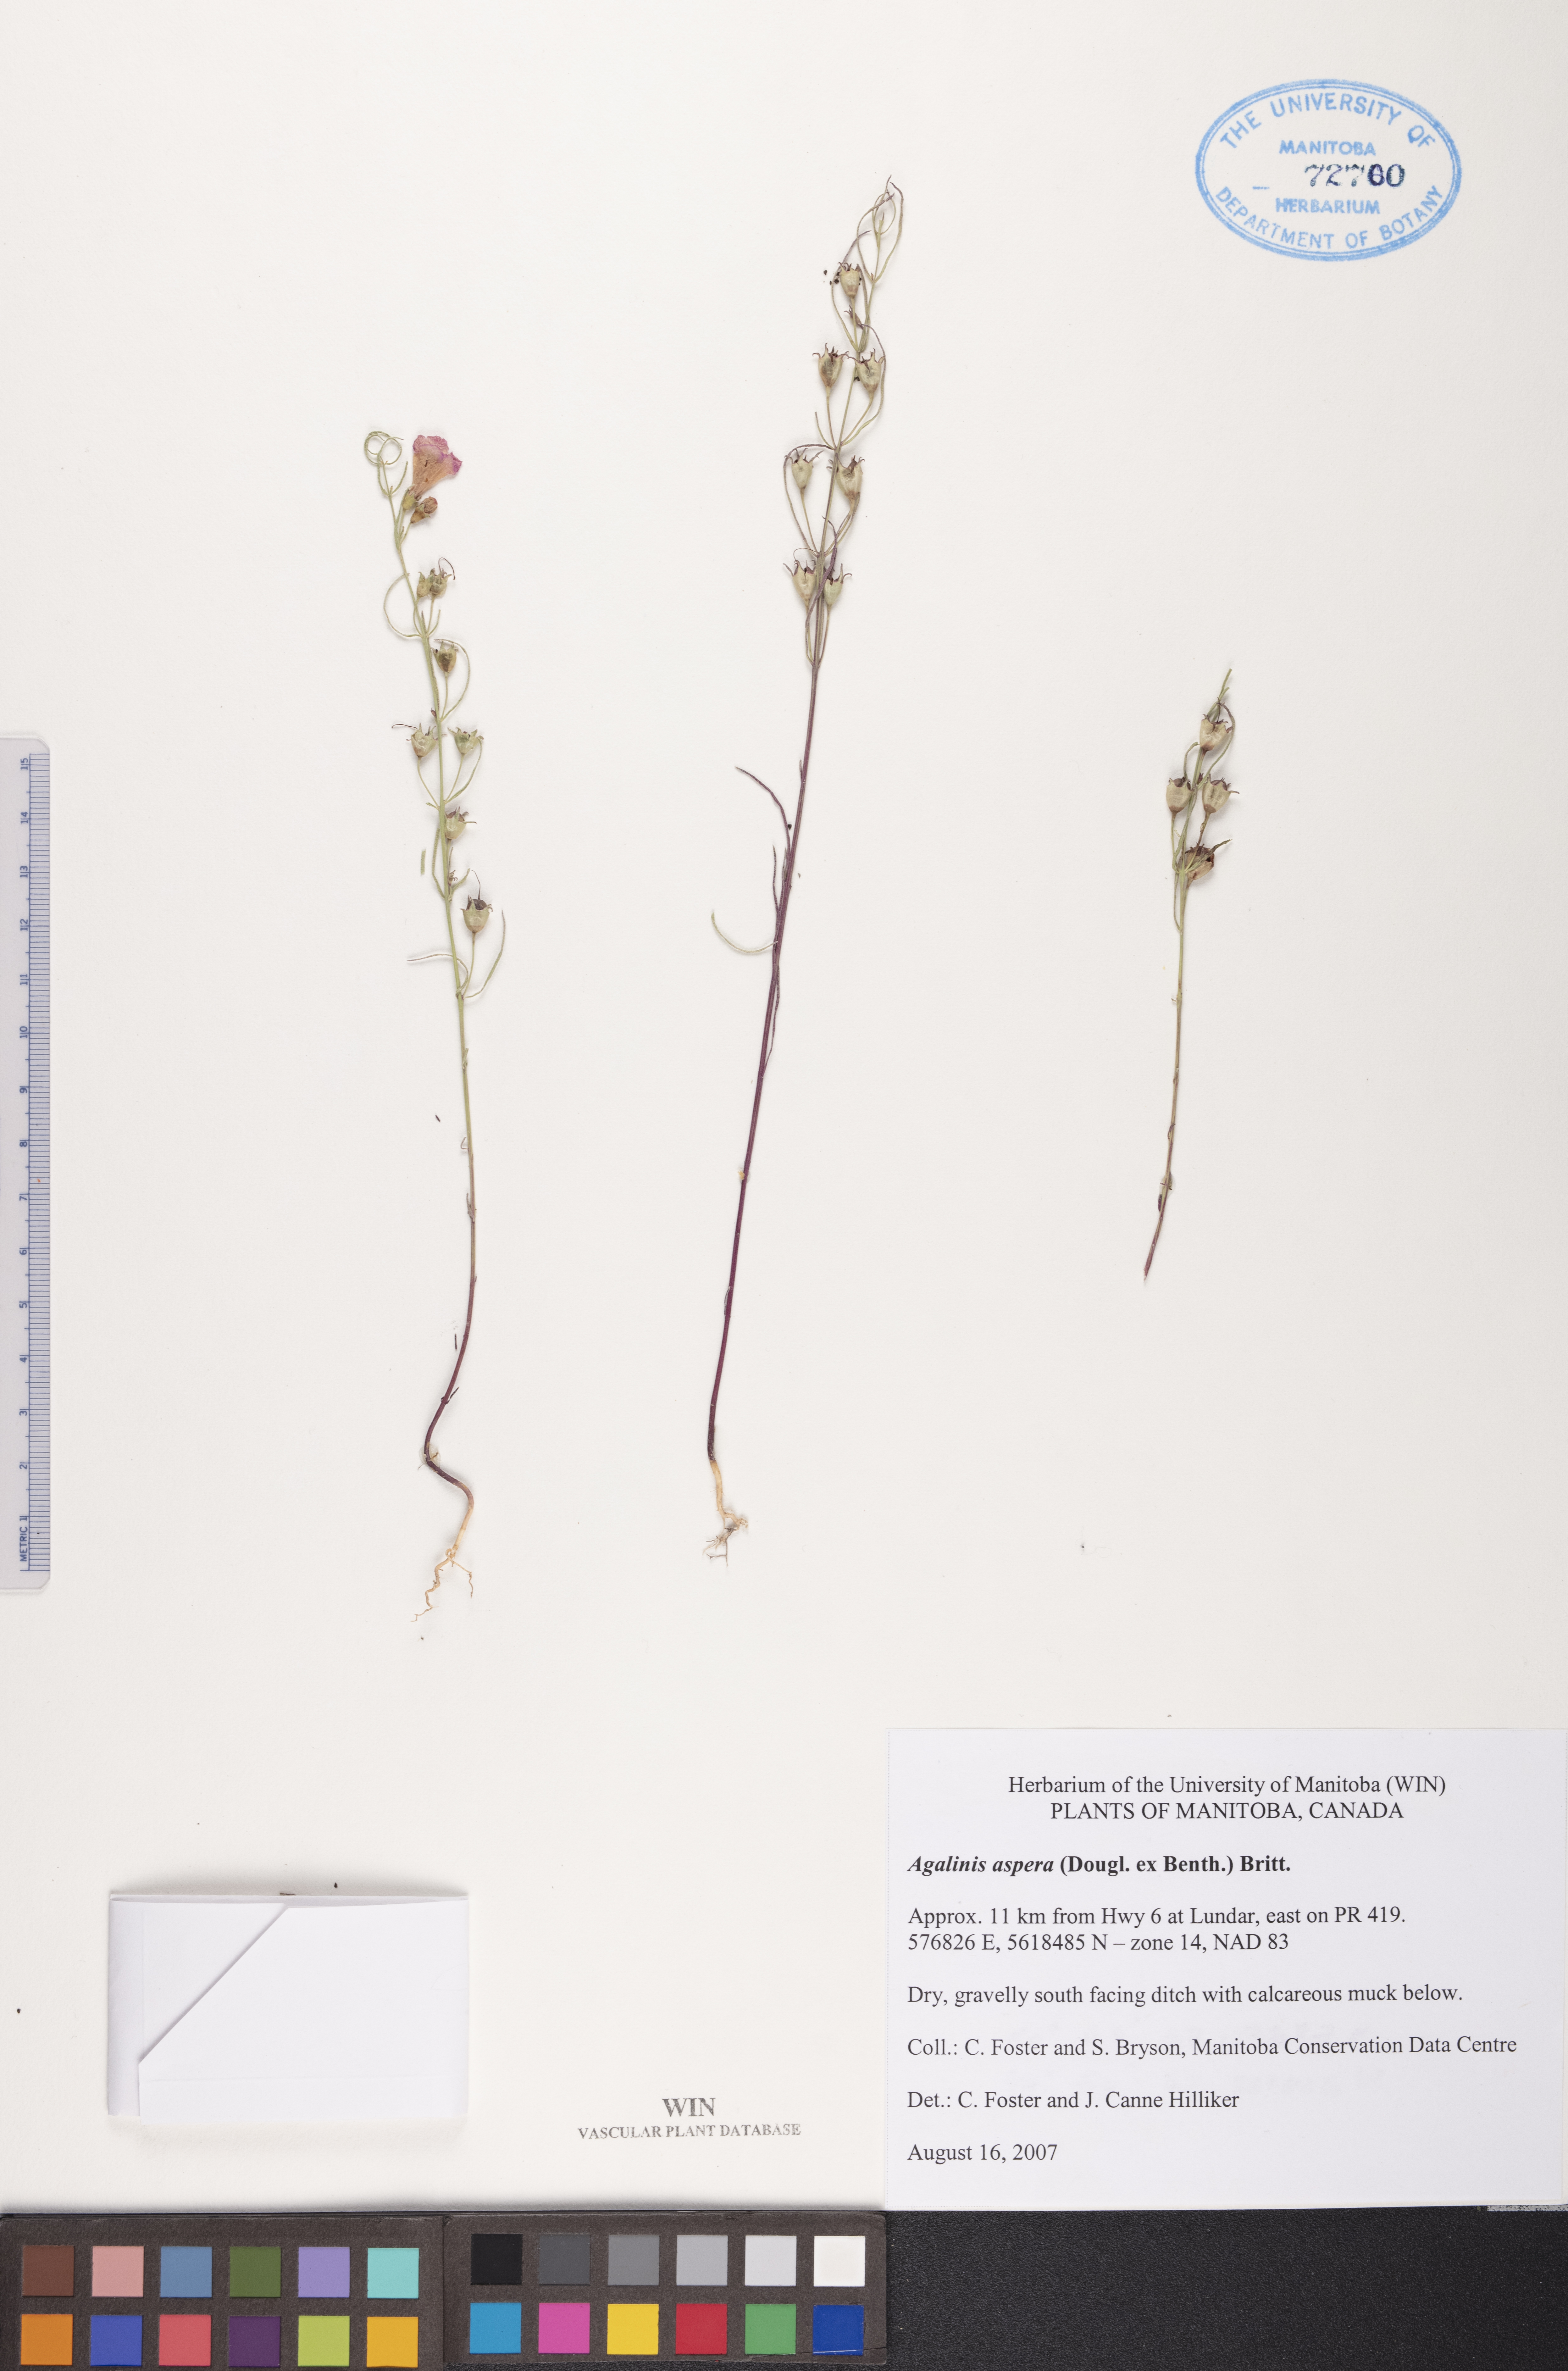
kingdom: Plantae
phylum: Tracheophyta
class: Magnoliopsida
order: Lamiales
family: Orobanchaceae
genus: Agalinis
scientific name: Agalinis aspera
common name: Rough agalinis
